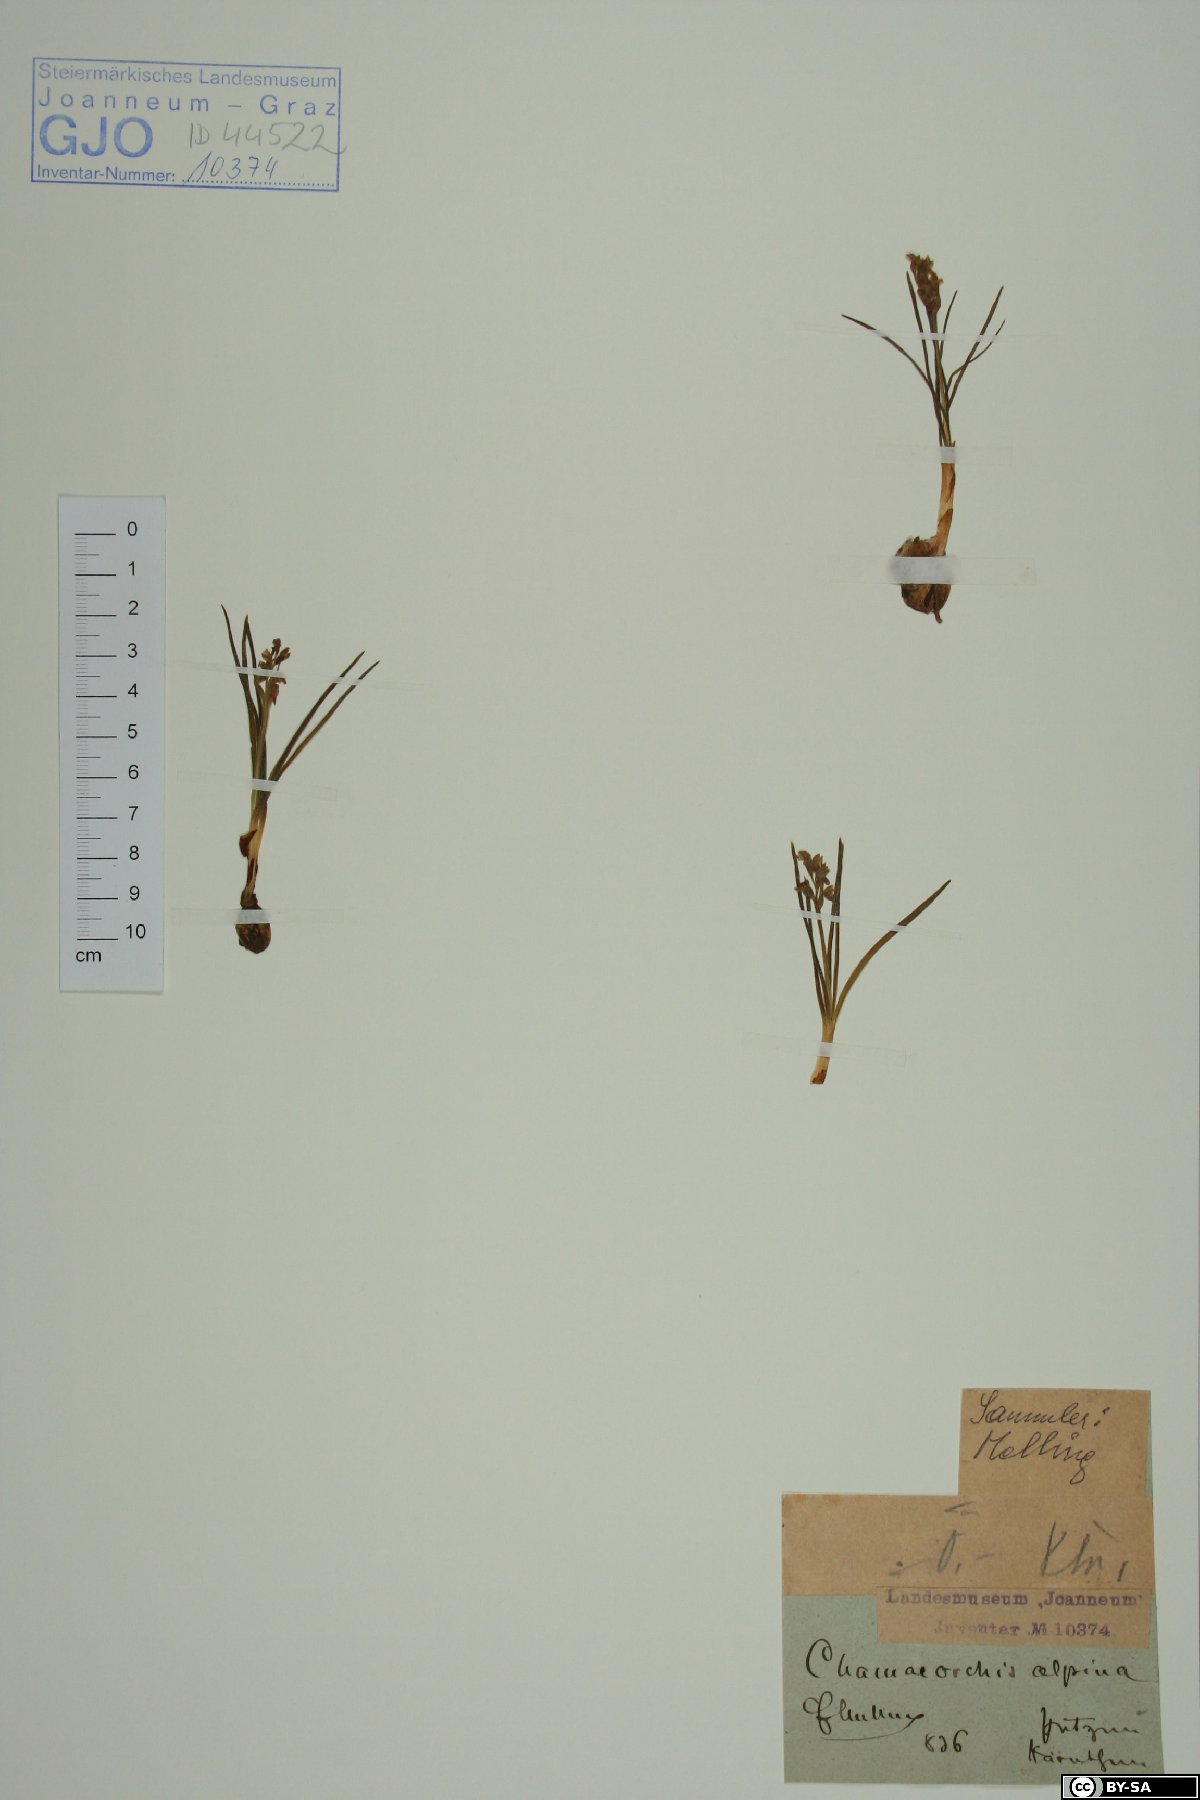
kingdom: Plantae
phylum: Tracheophyta
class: Liliopsida
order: Asparagales
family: Orchidaceae
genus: Chamorchis
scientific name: Chamorchis alpina
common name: Alpine chamorchis
